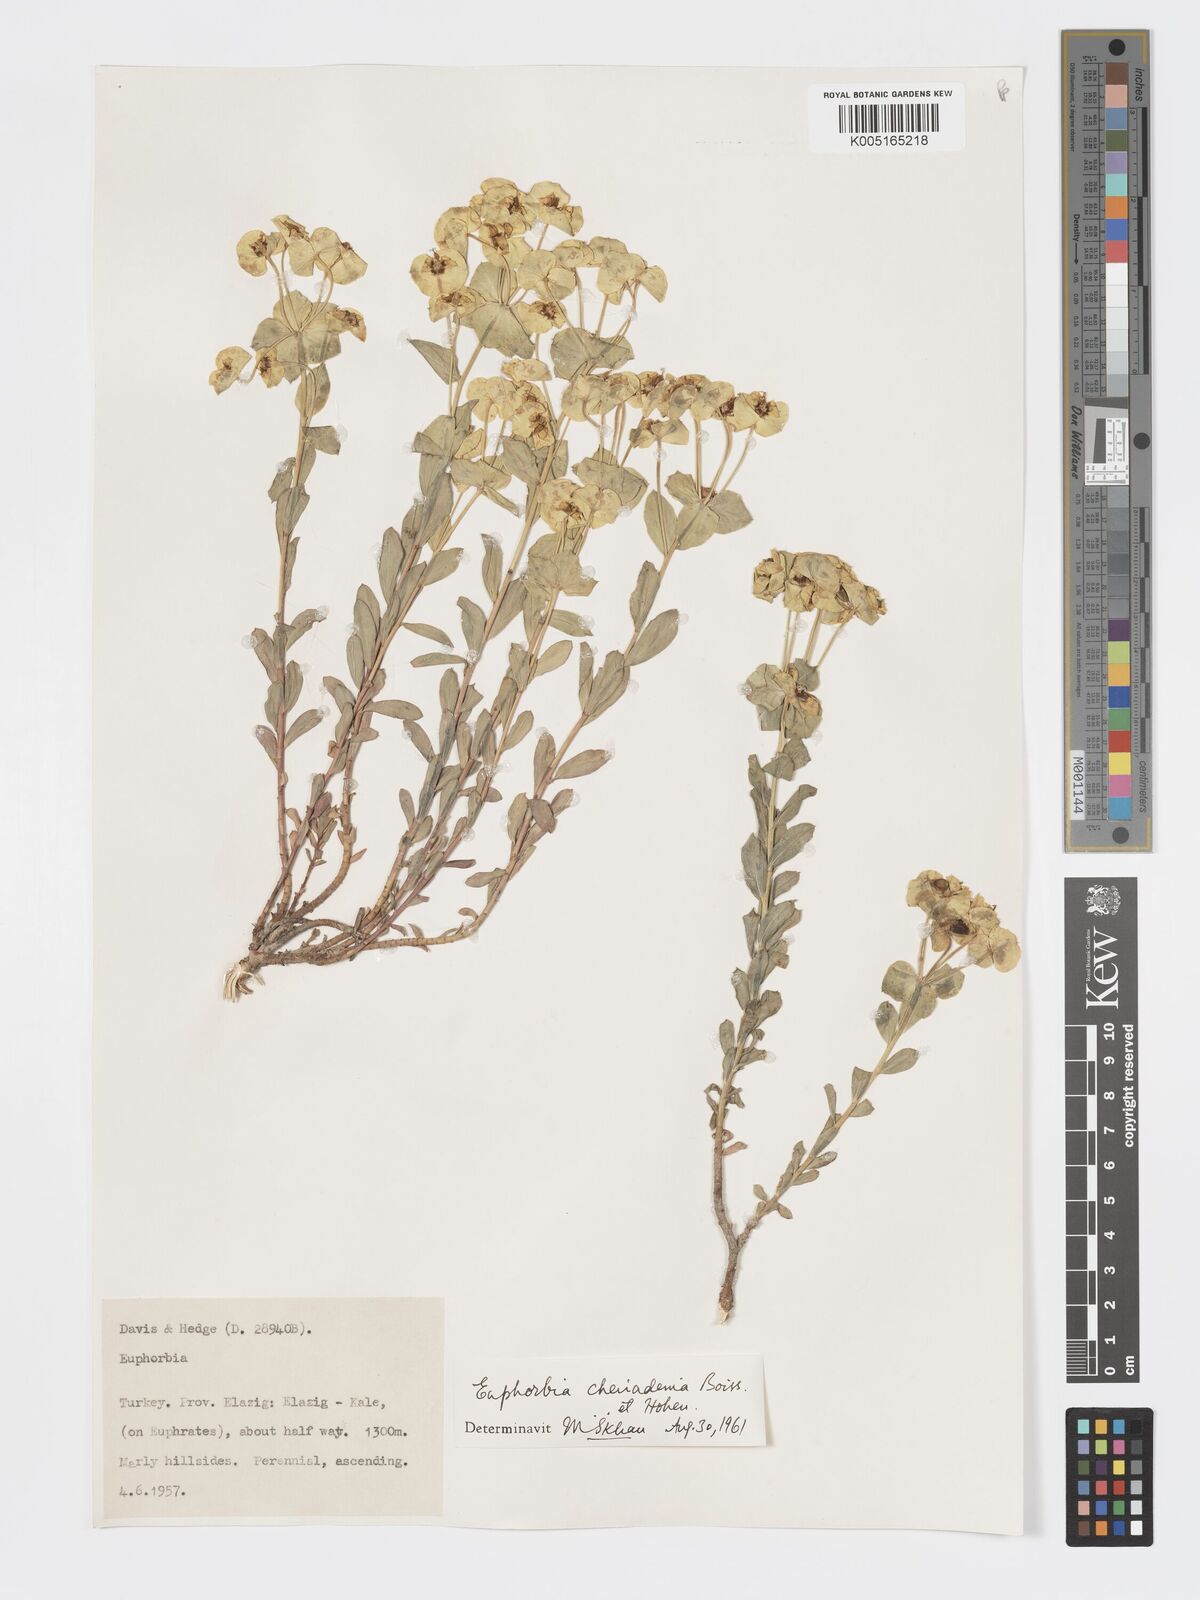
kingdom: Plantae
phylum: Tracheophyta
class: Magnoliopsida
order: Malpighiales
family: Euphorbiaceae
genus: Euphorbia
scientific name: Euphorbia cheiradenia
